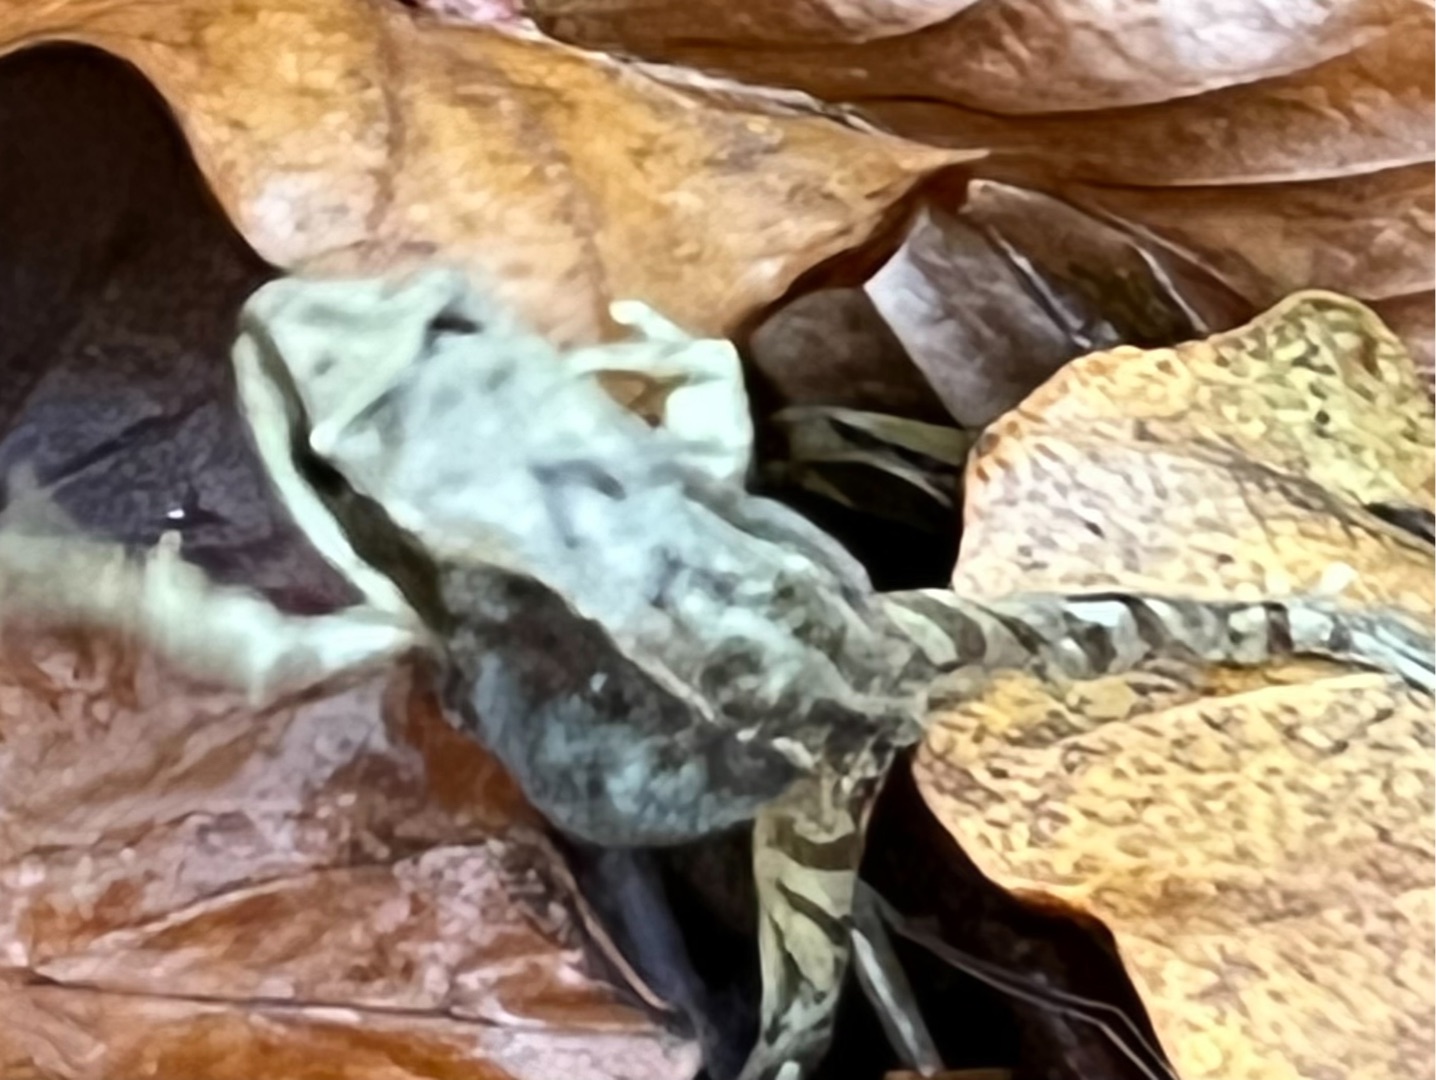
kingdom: Animalia
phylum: Chordata
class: Amphibia
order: Anura
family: Ranidae
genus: Rana
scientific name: Rana temporaria
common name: Butsnudet frø
